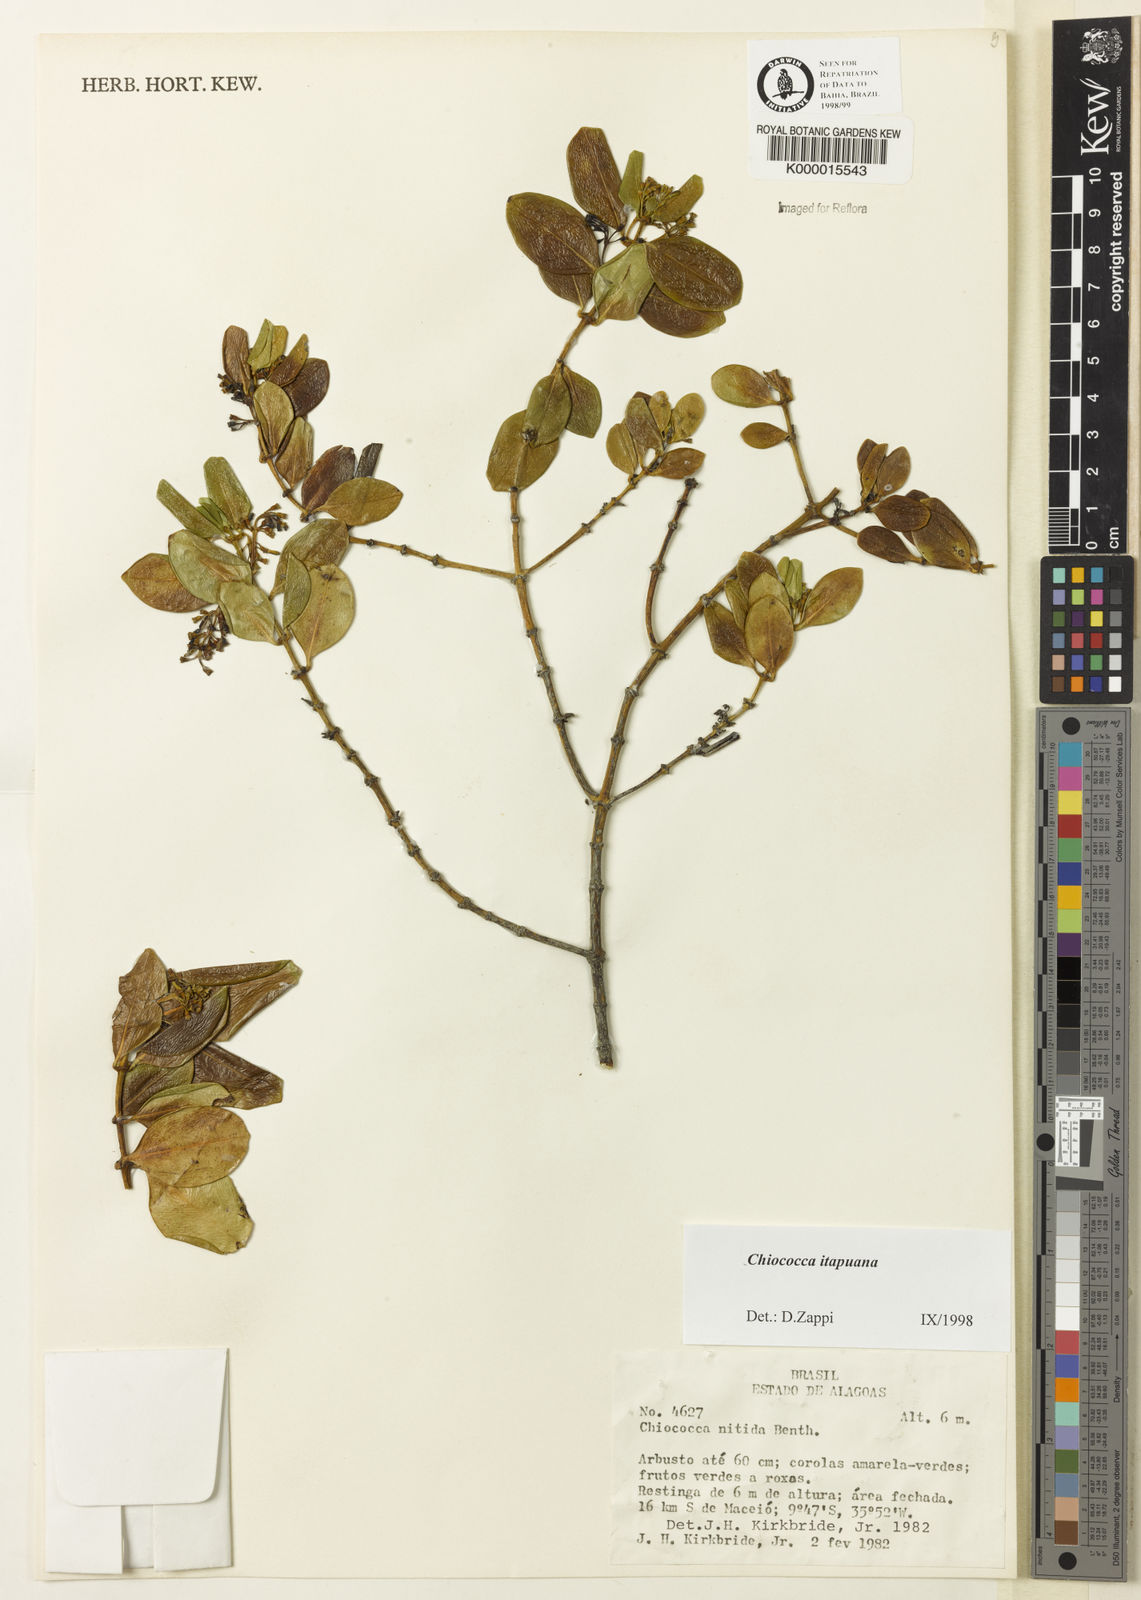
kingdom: Plantae
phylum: Tracheophyta
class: Magnoliopsida
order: Gentianales
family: Rubiaceae
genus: Chiococca
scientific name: Chiococca
